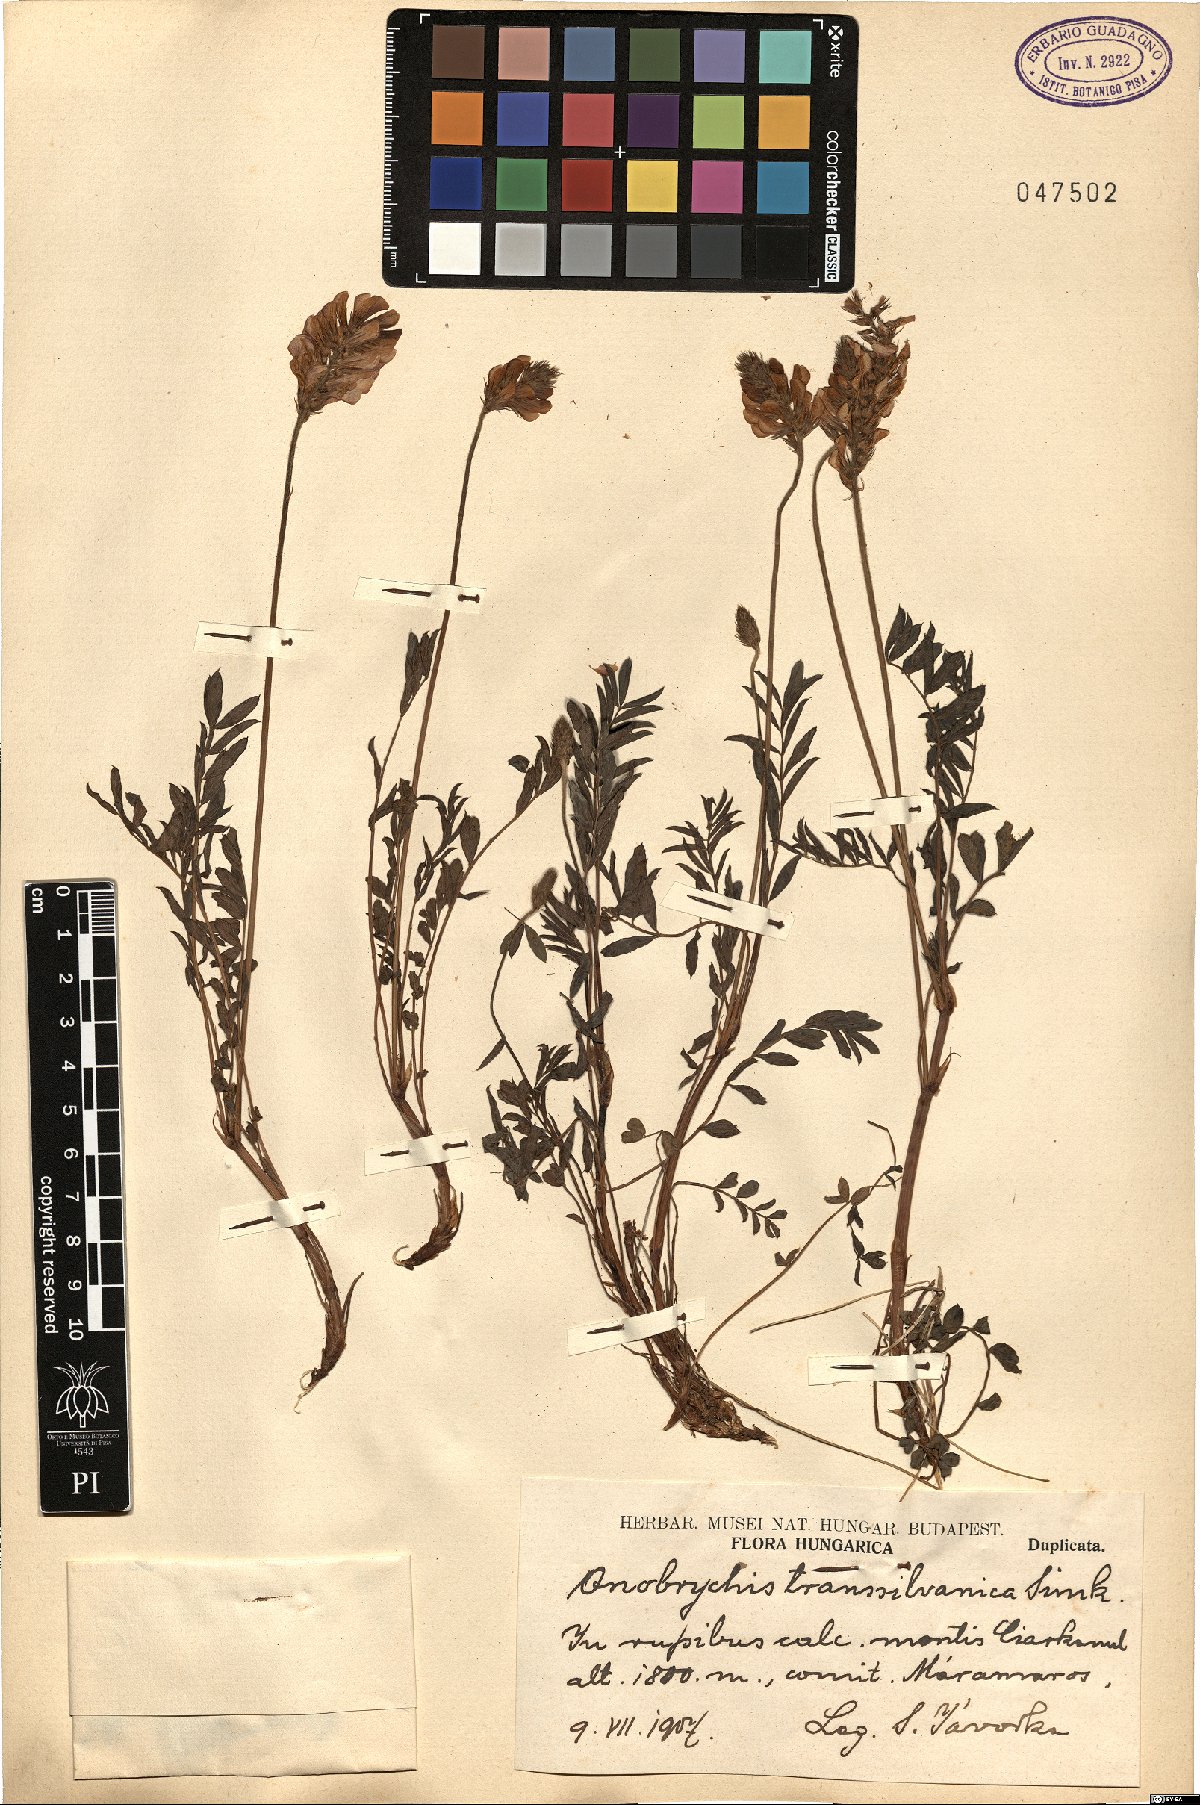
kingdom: Plantae
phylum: Tracheophyta
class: Magnoliopsida
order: Fabales
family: Fabaceae
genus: Onobrychis
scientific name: Onobrychis montana
